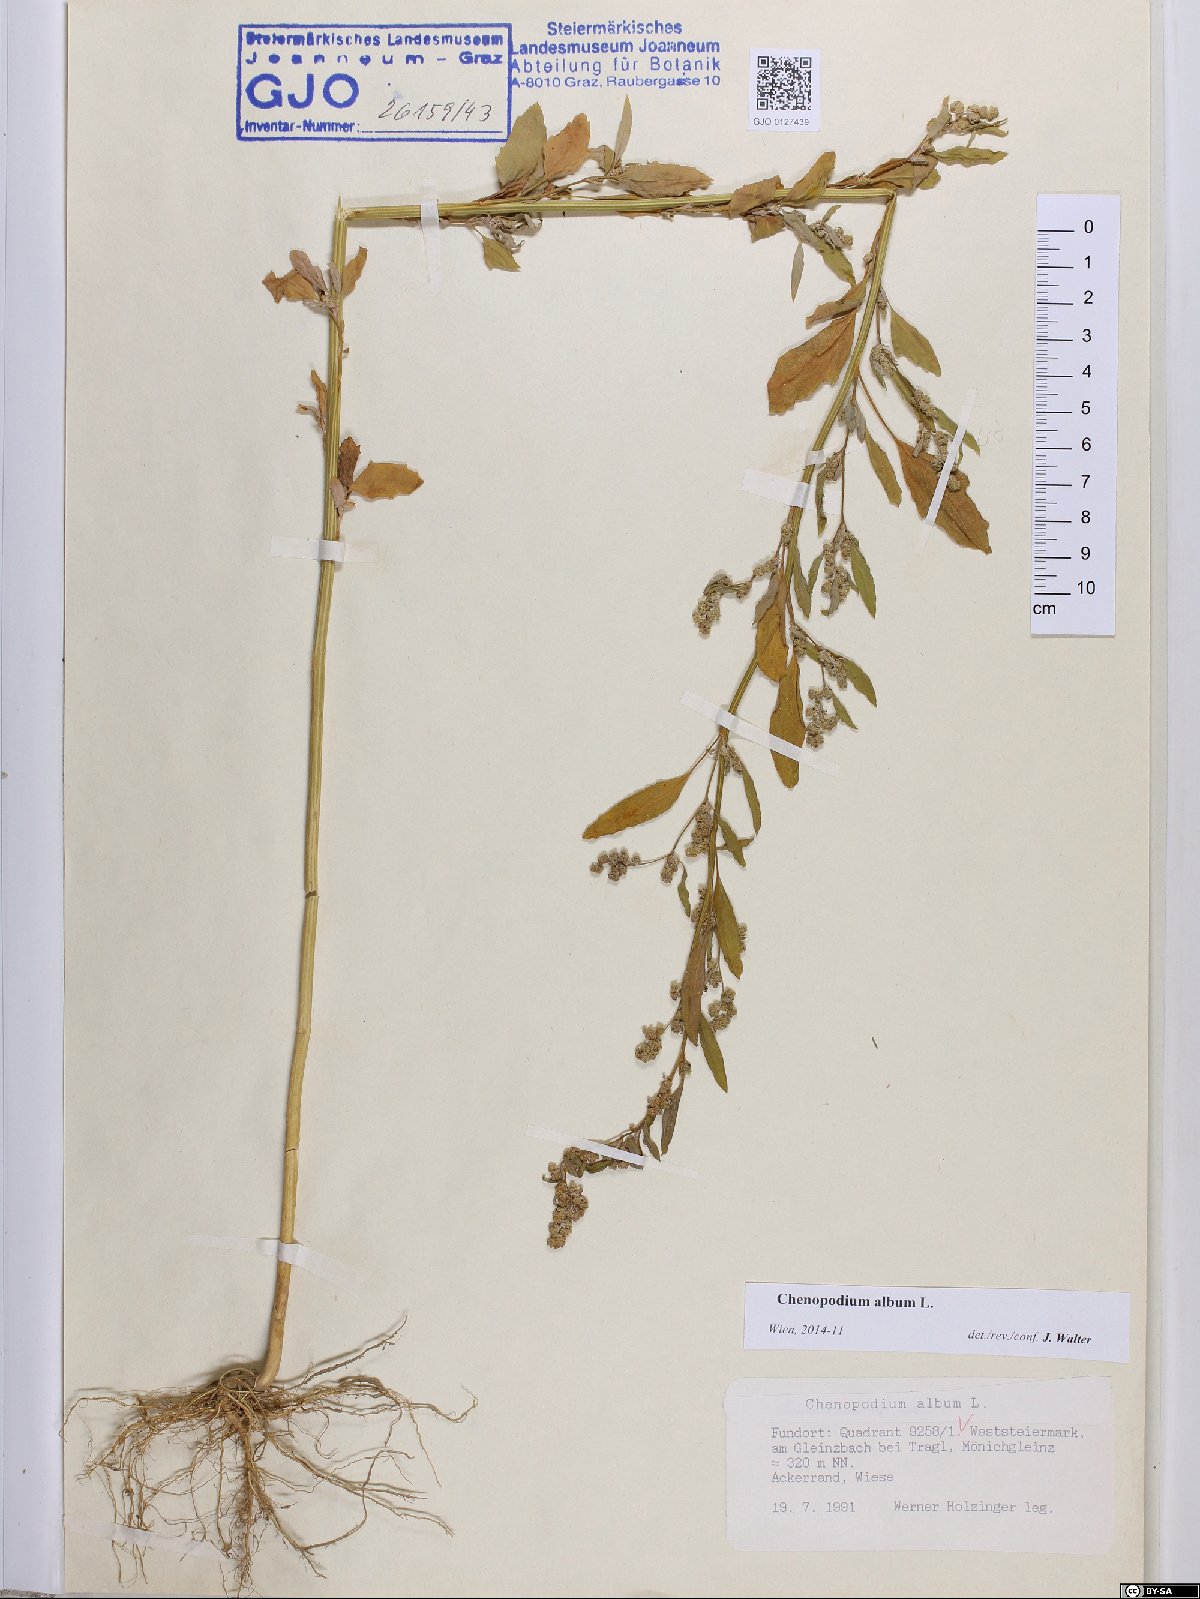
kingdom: Plantae
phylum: Tracheophyta
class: Magnoliopsida
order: Caryophyllales
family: Amaranthaceae
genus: Chenopodium
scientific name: Chenopodium album
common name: Fat-hen
